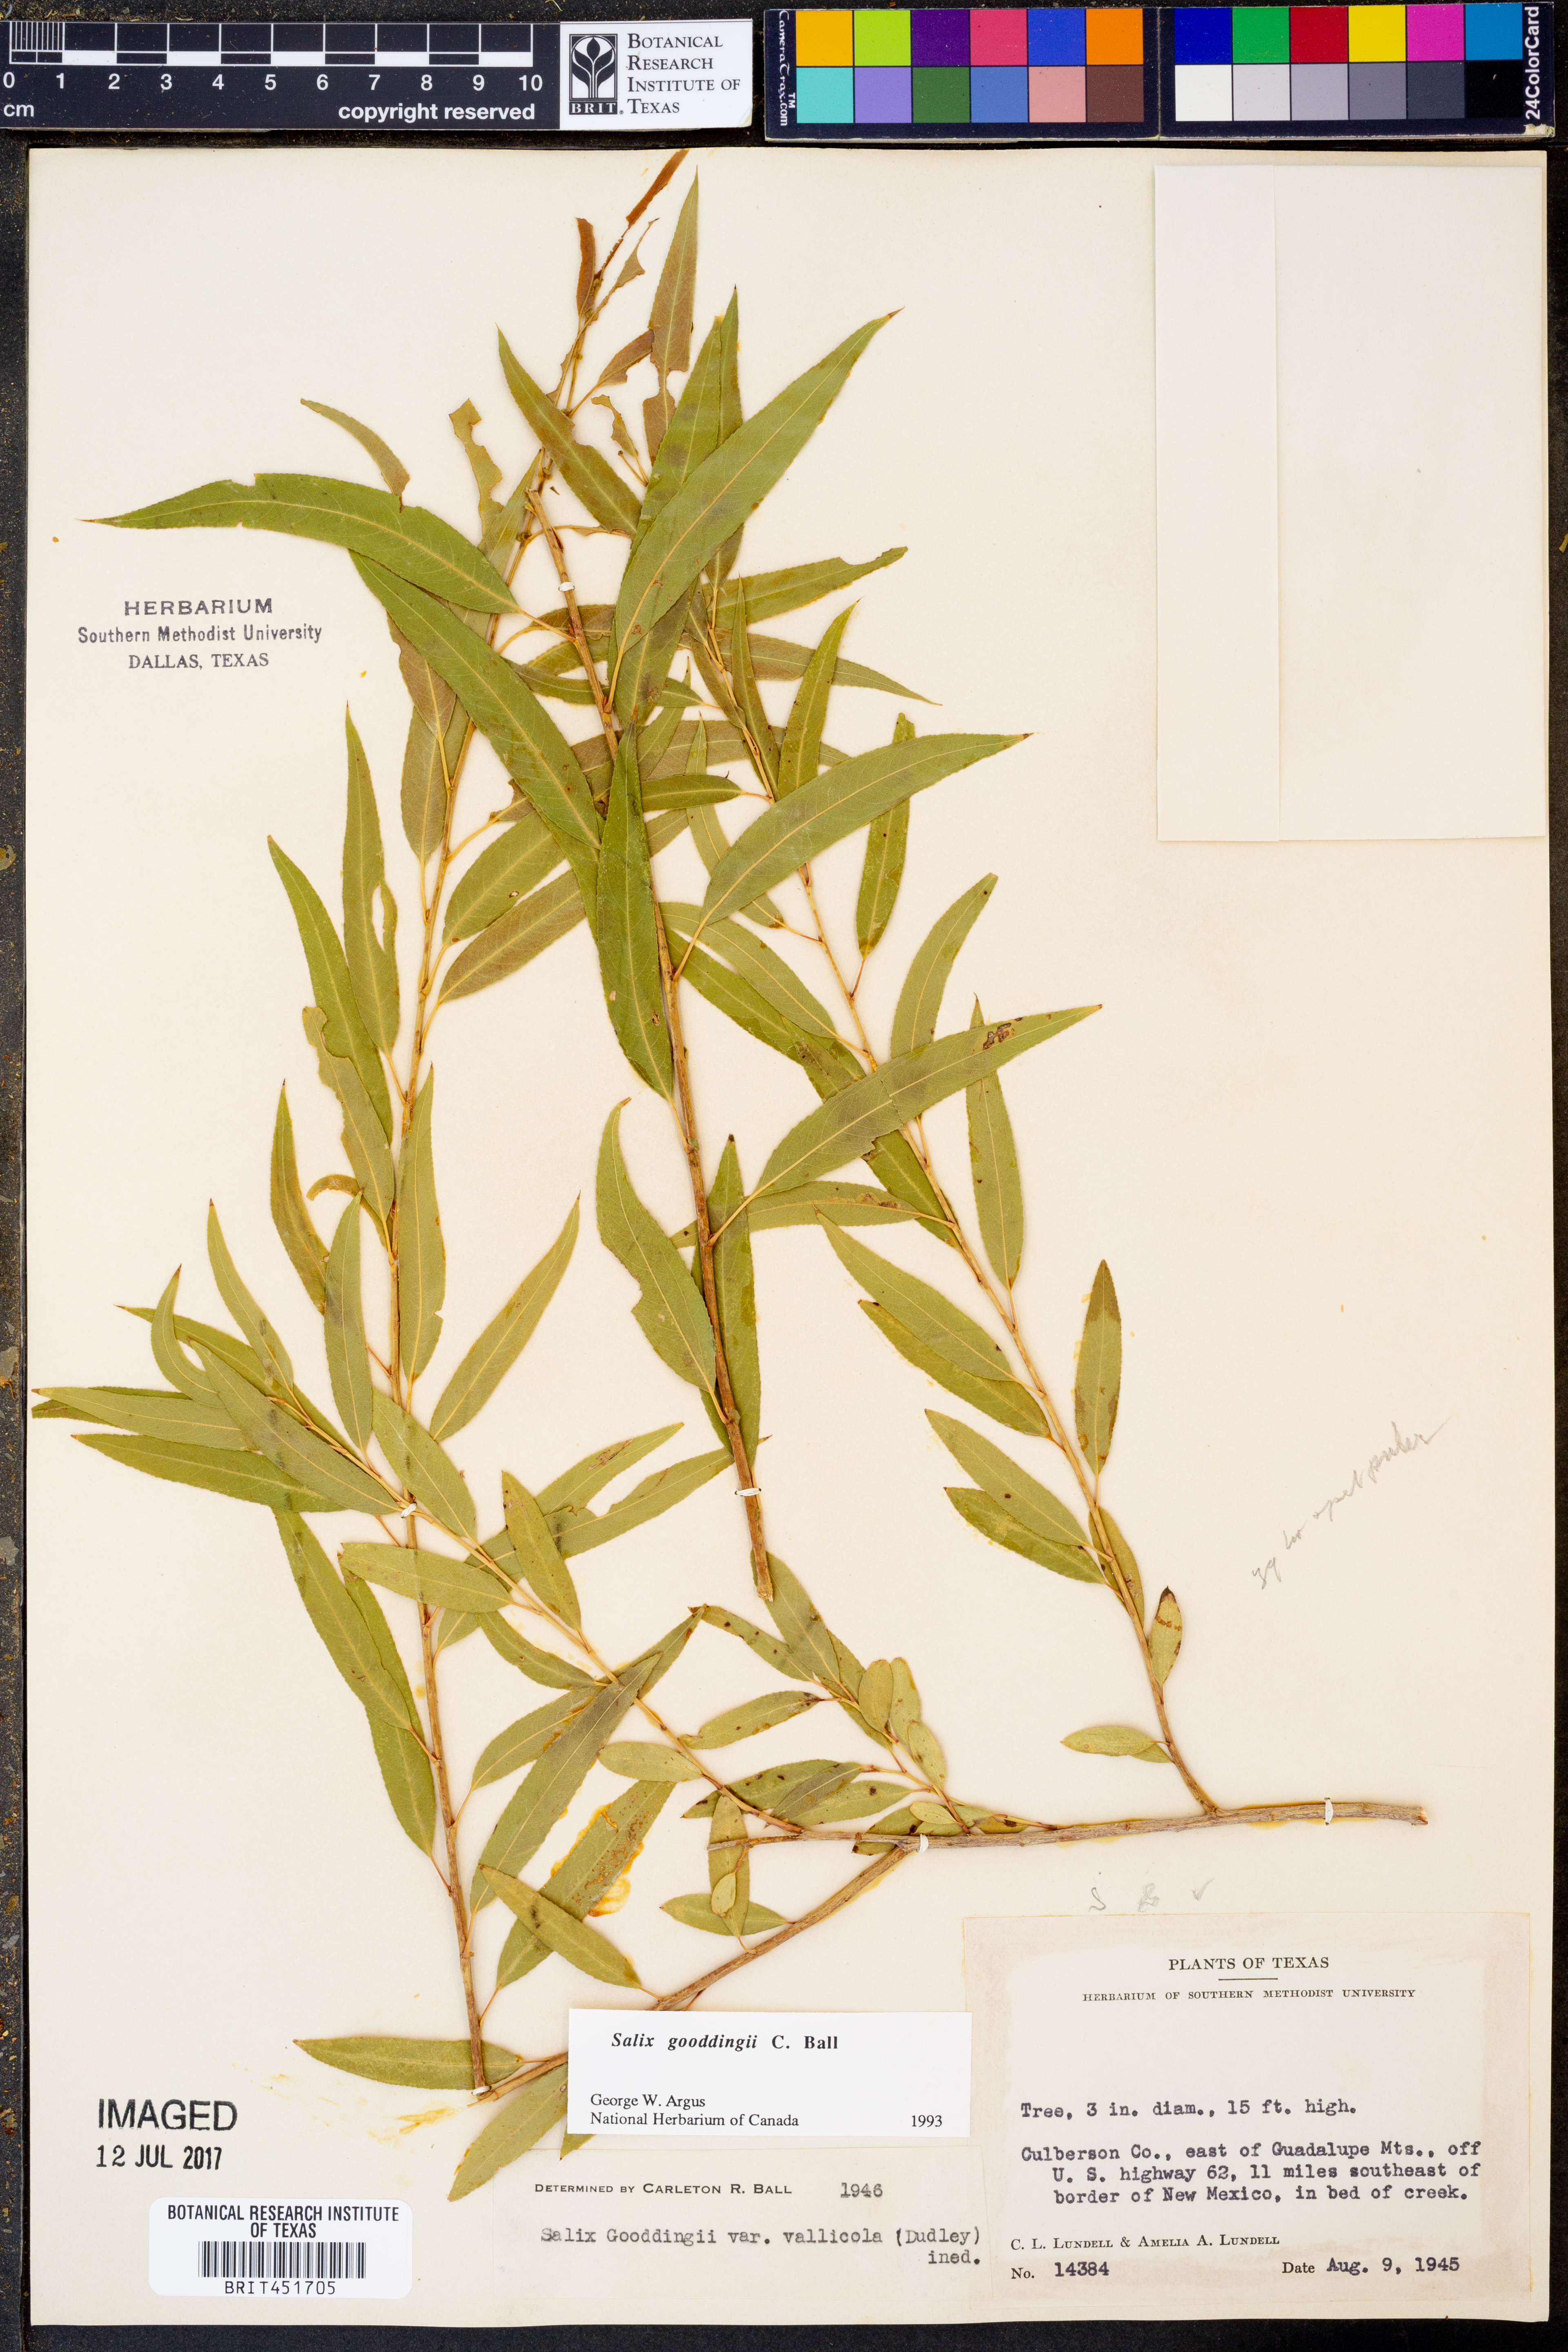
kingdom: Plantae
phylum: Tracheophyta
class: Magnoliopsida
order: Malpighiales
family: Salicaceae
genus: Salix
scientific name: Salix gooddingii
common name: Goodding's willow
